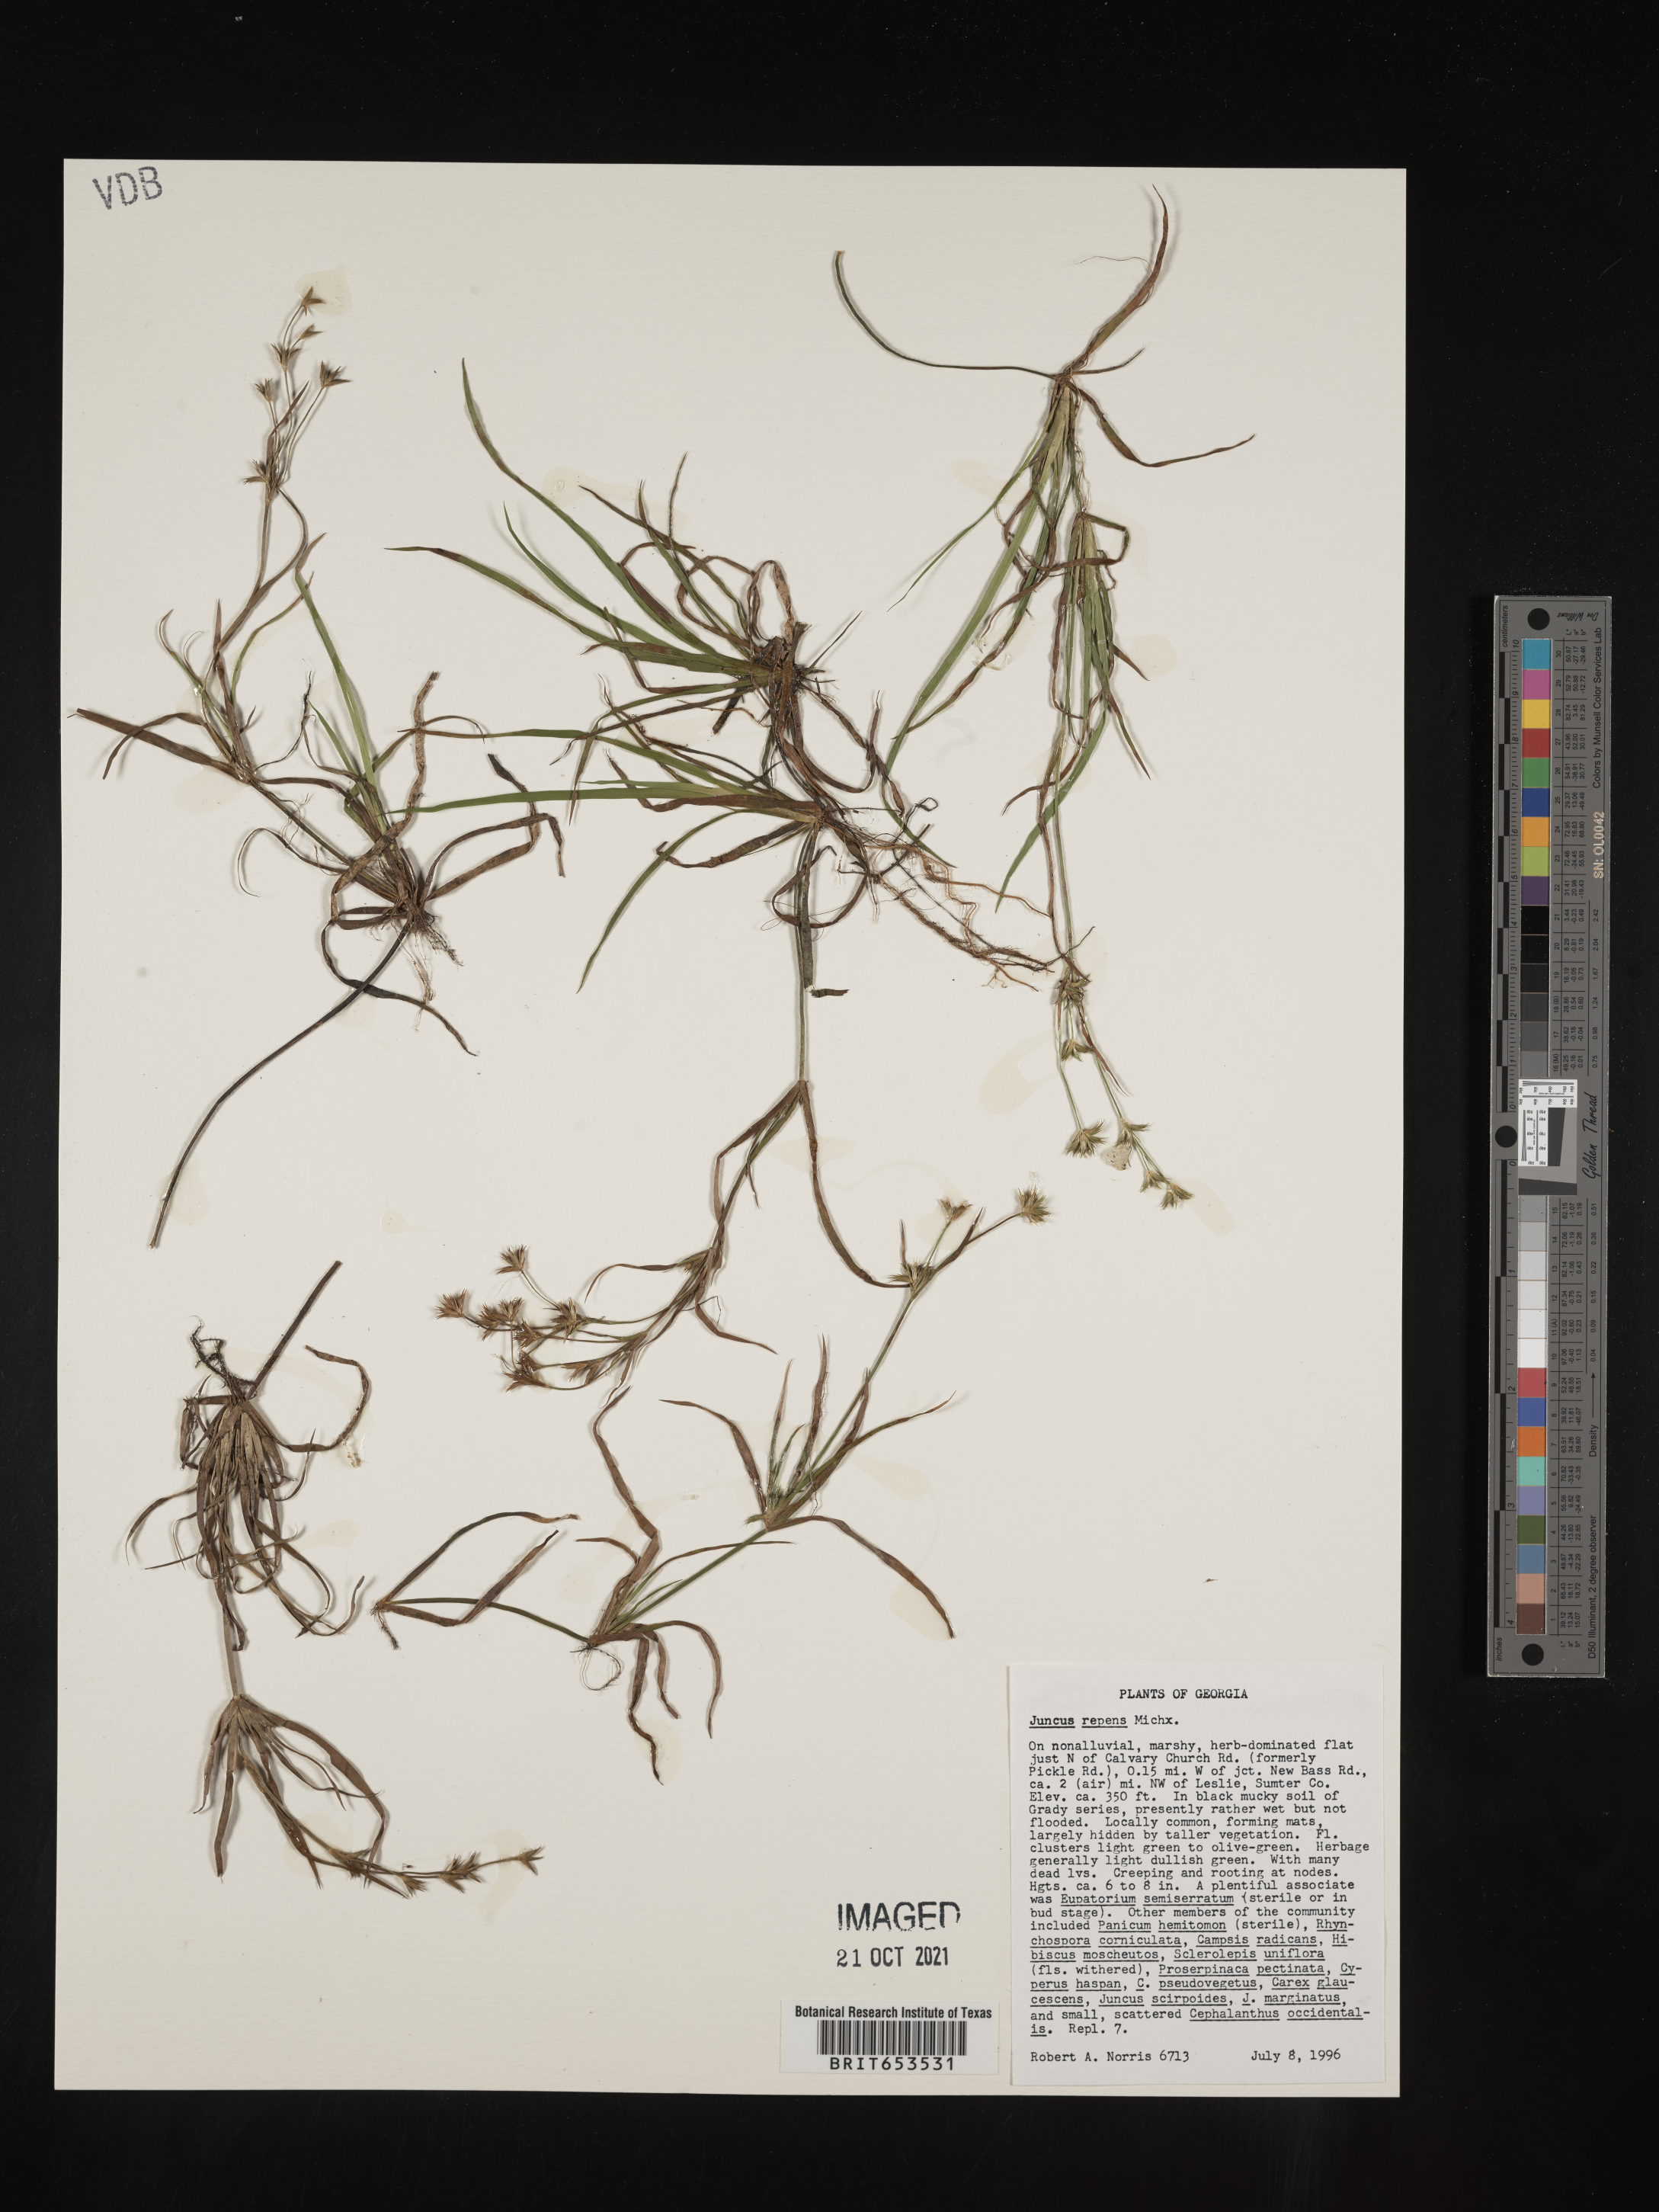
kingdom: Plantae
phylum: Tracheophyta
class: Liliopsida
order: Poales
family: Juncaceae
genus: Juncus
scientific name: Juncus repens
